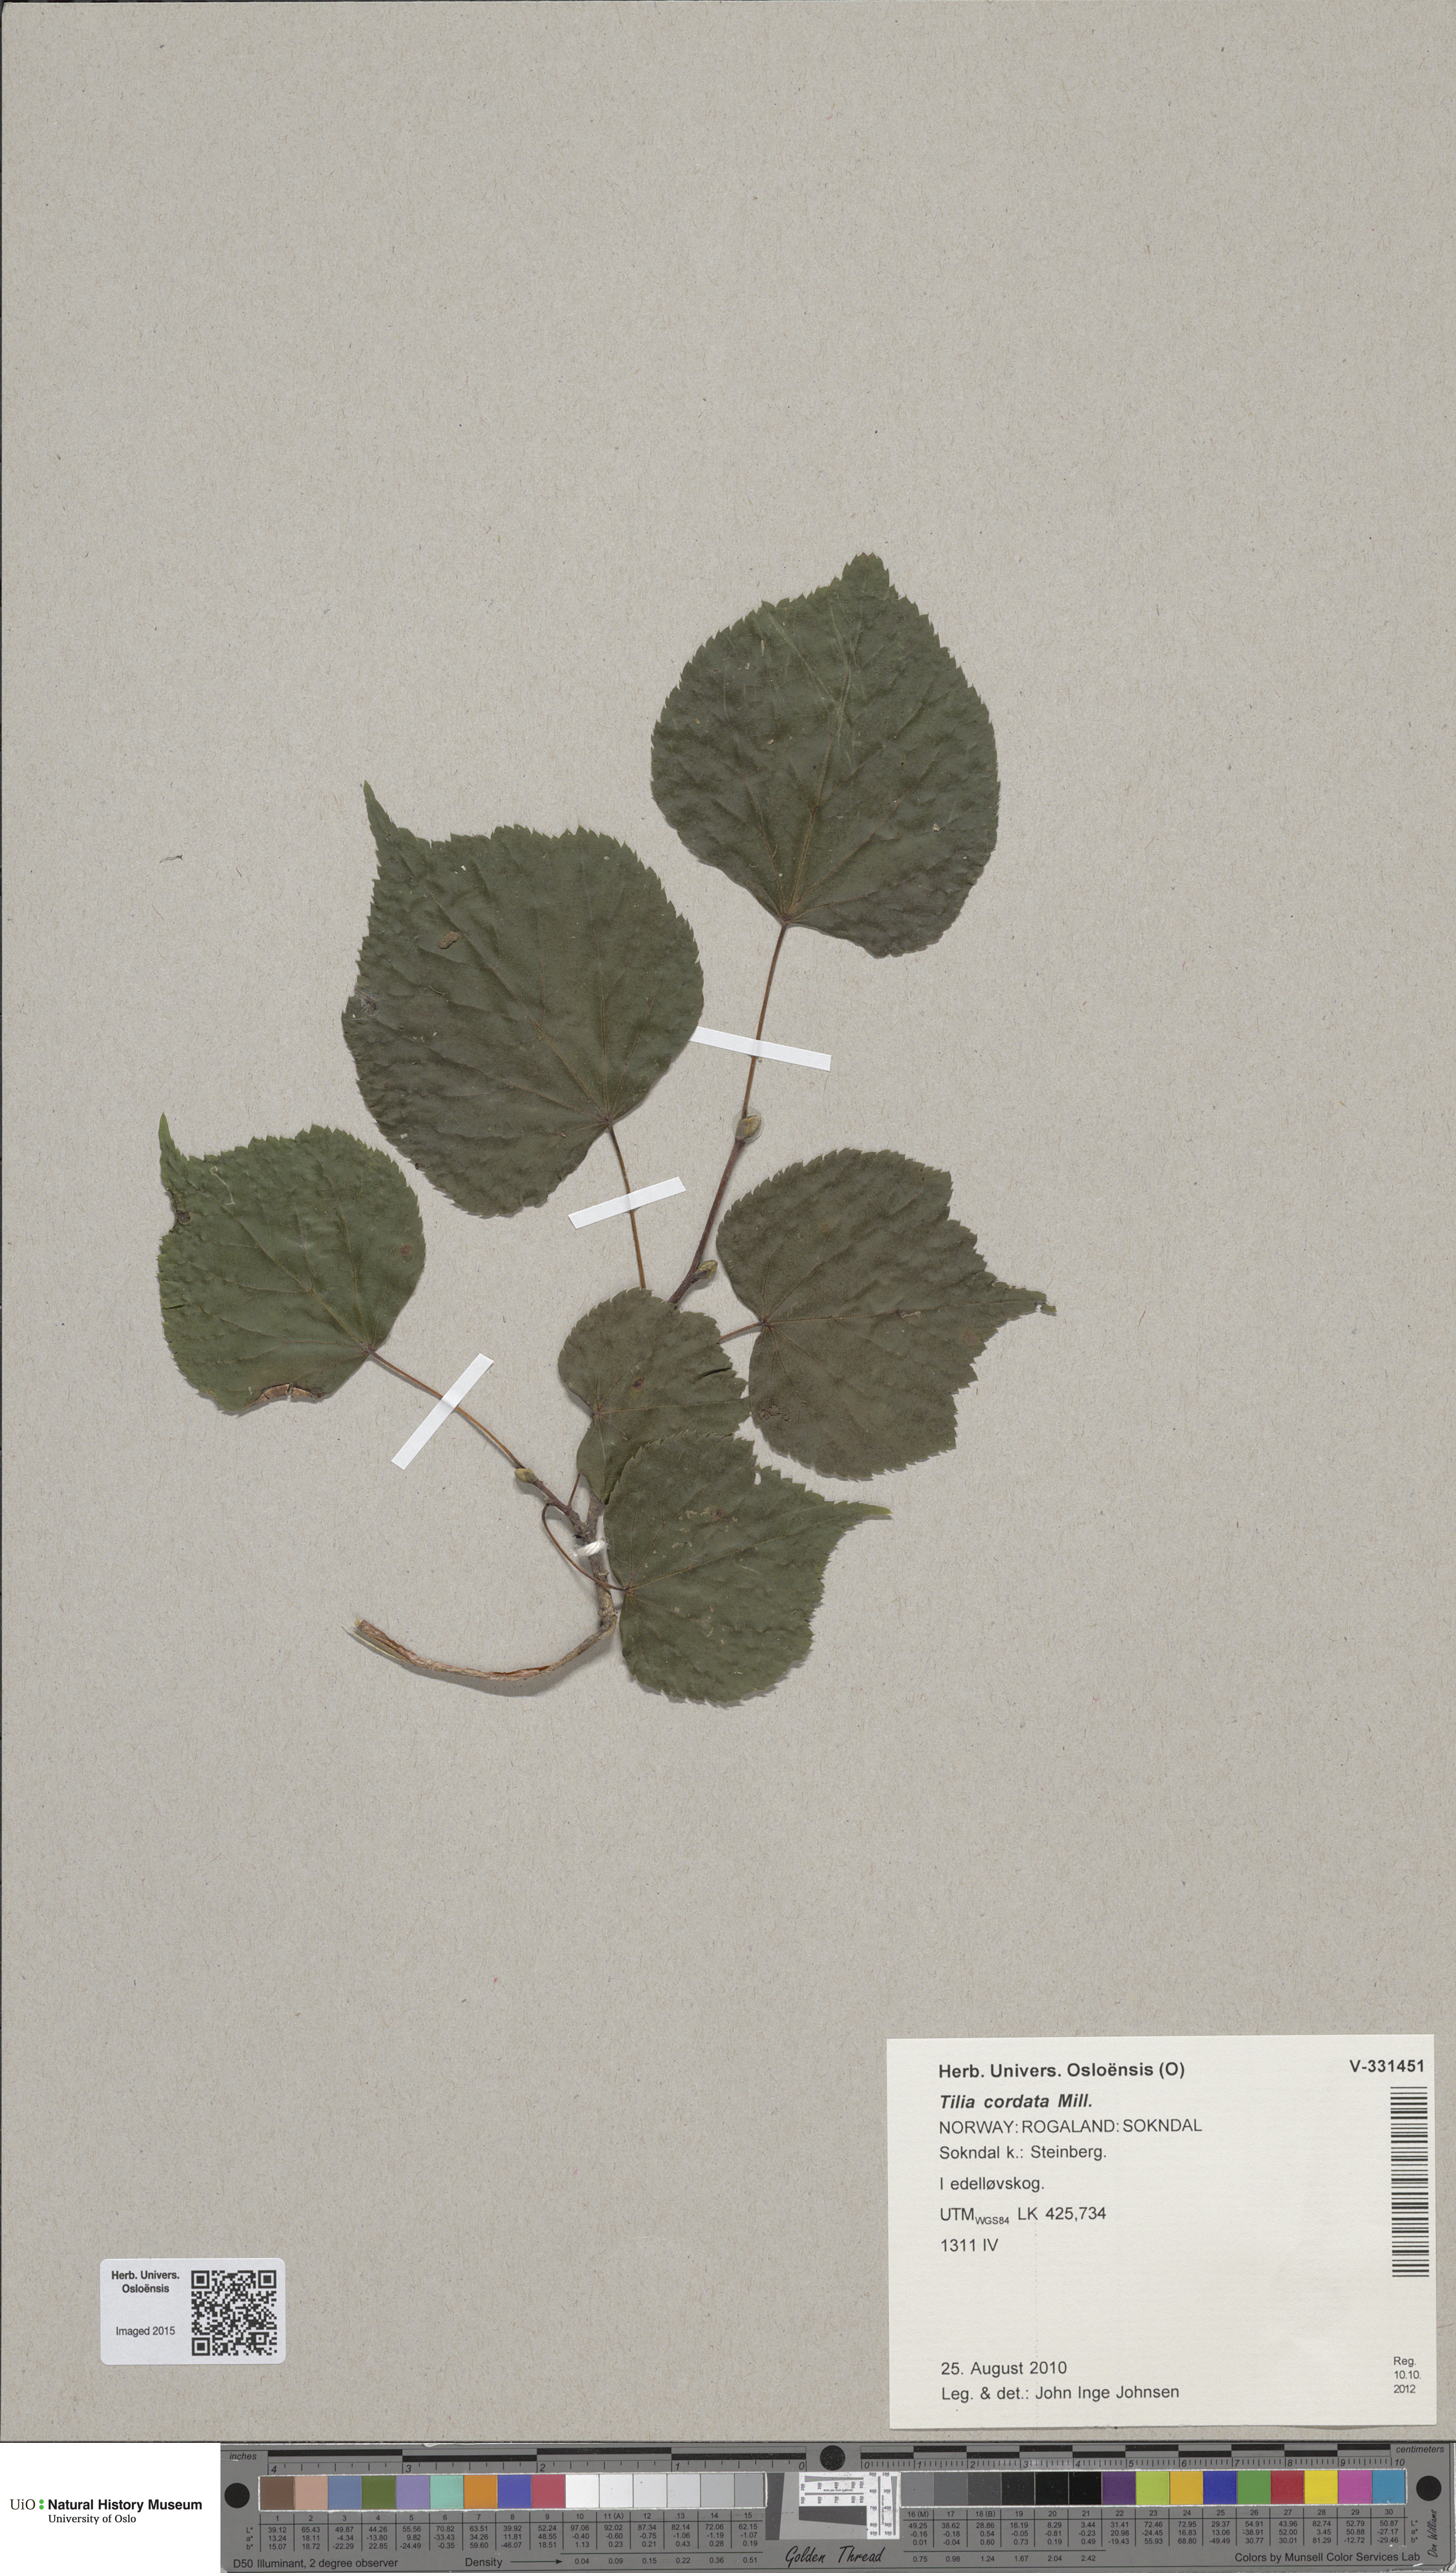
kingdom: Plantae
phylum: Tracheophyta
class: Magnoliopsida
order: Malvales
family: Malvaceae
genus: Tilia
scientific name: Tilia cordata
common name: Small-leaved lime
